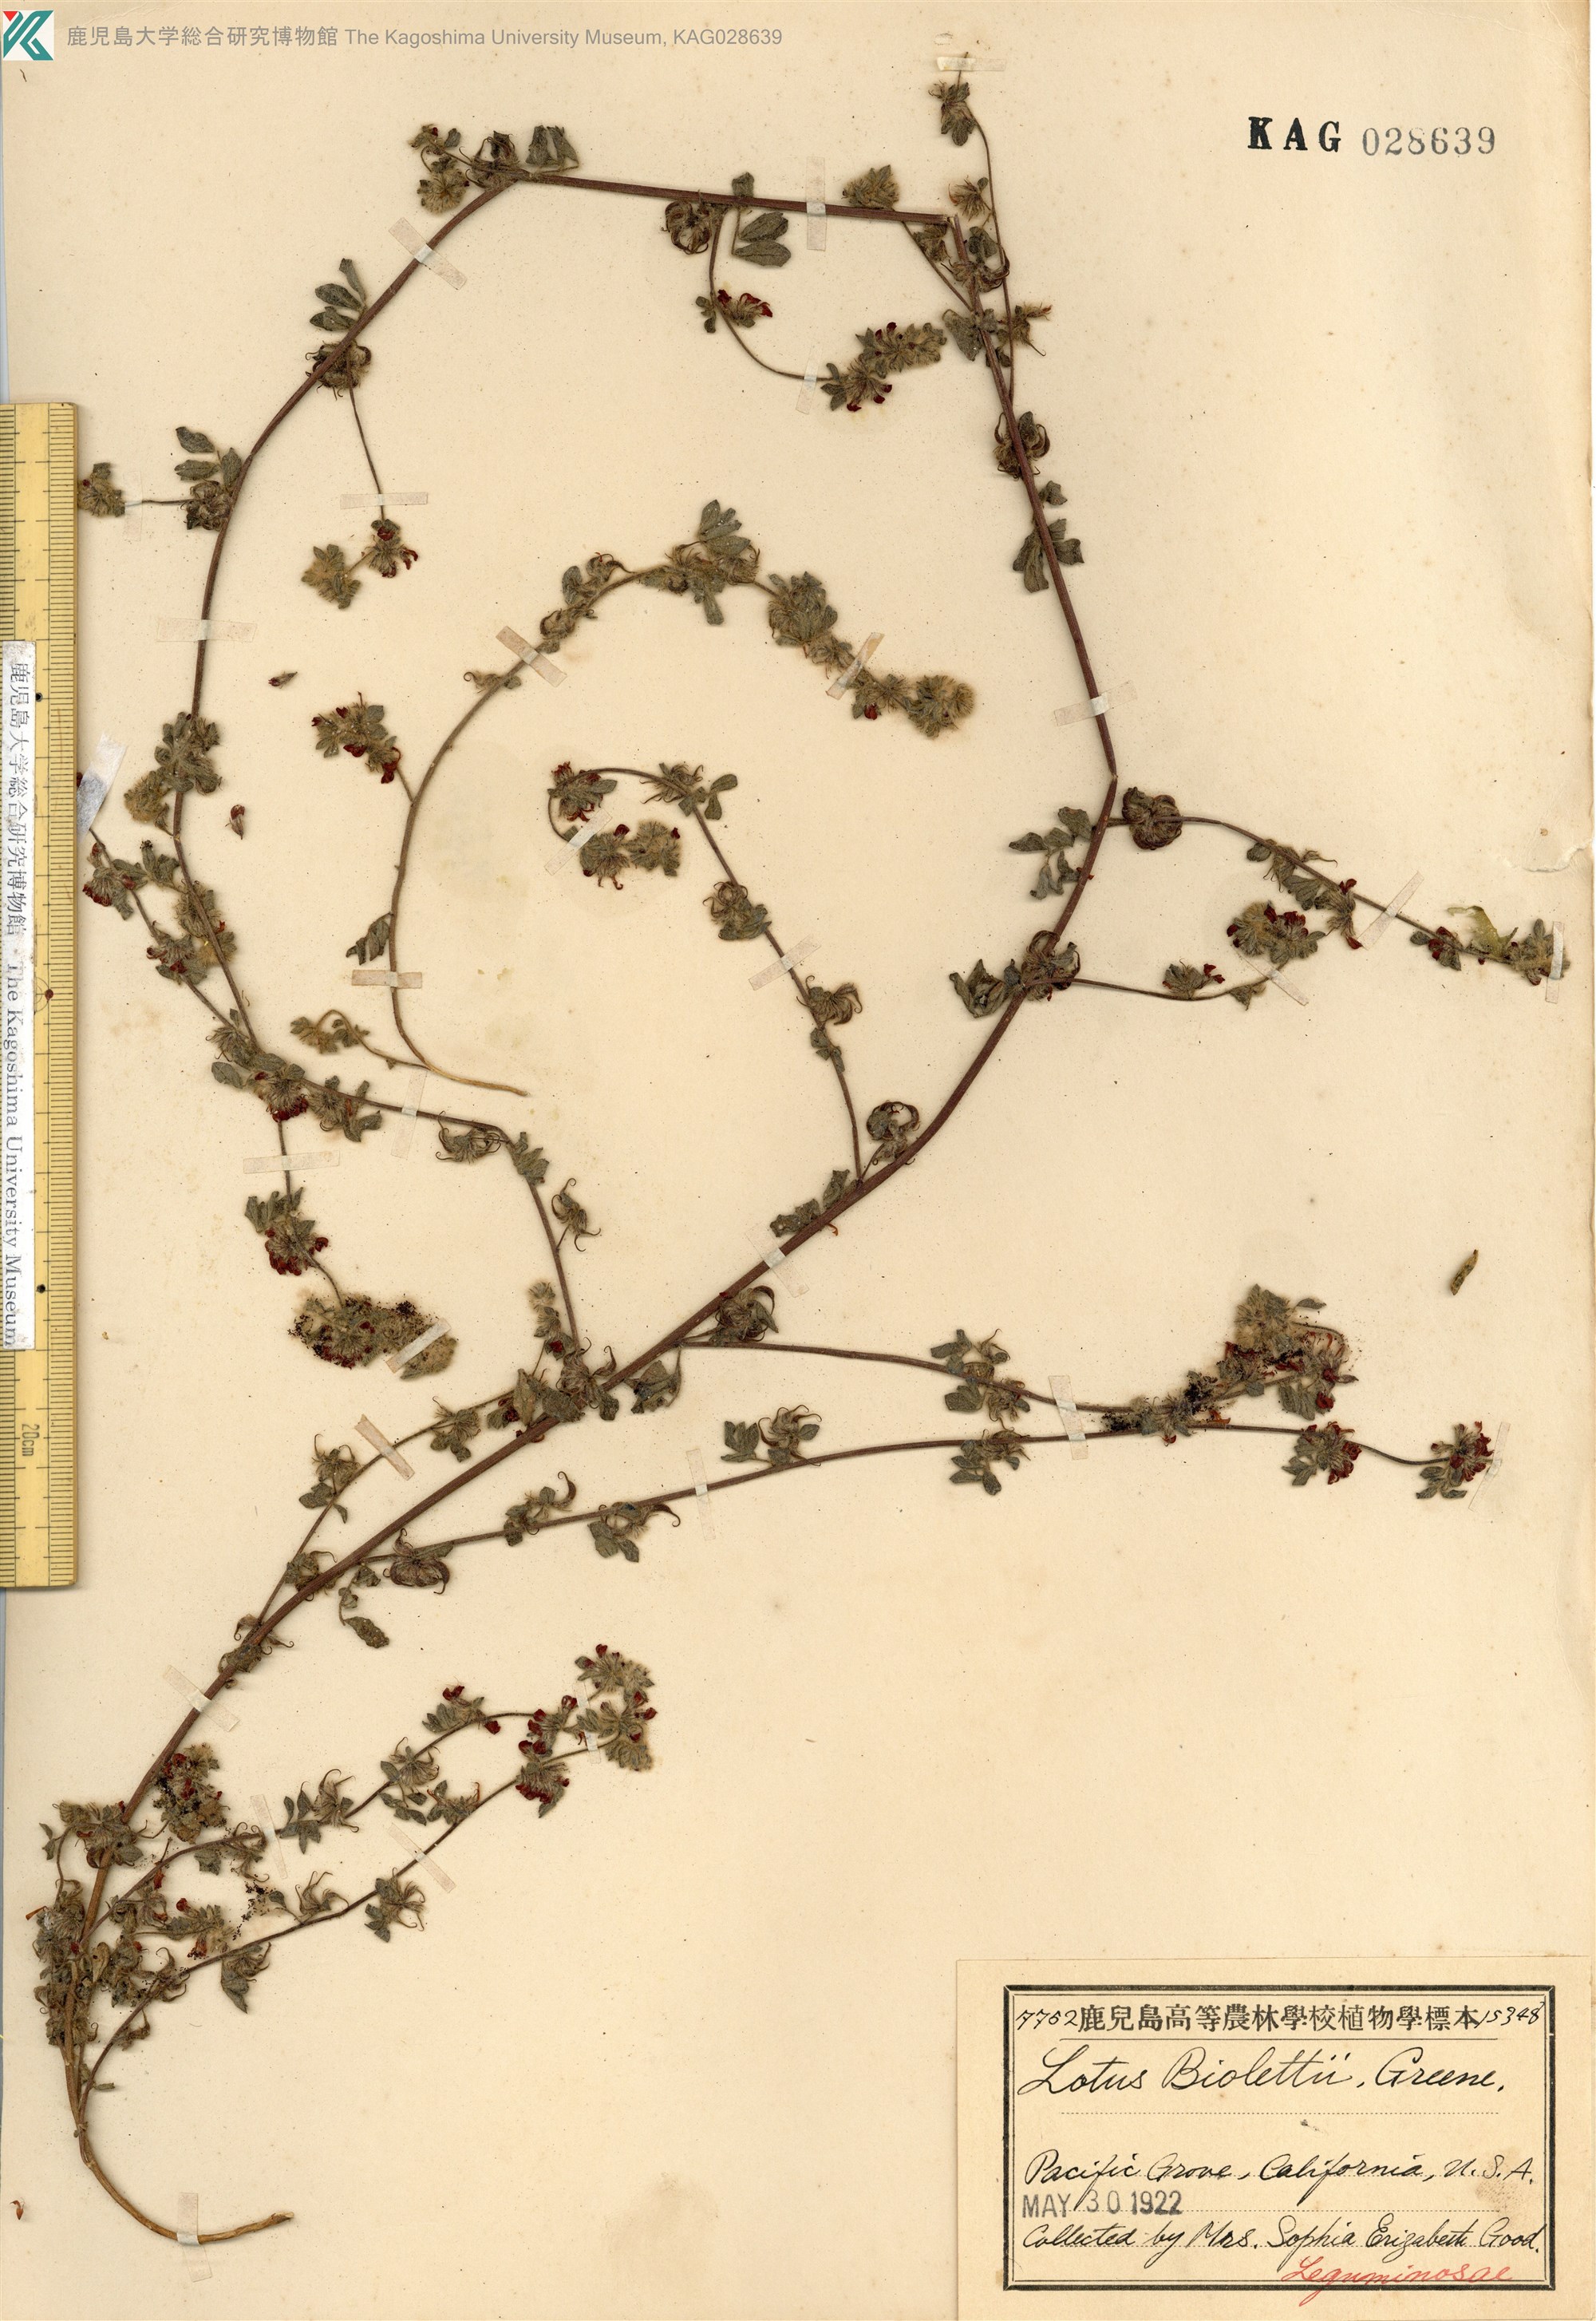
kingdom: Plantae
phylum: Tracheophyta
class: Magnoliopsida
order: Fabales
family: Fabaceae
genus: Acmispon
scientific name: Acmispon junceus
